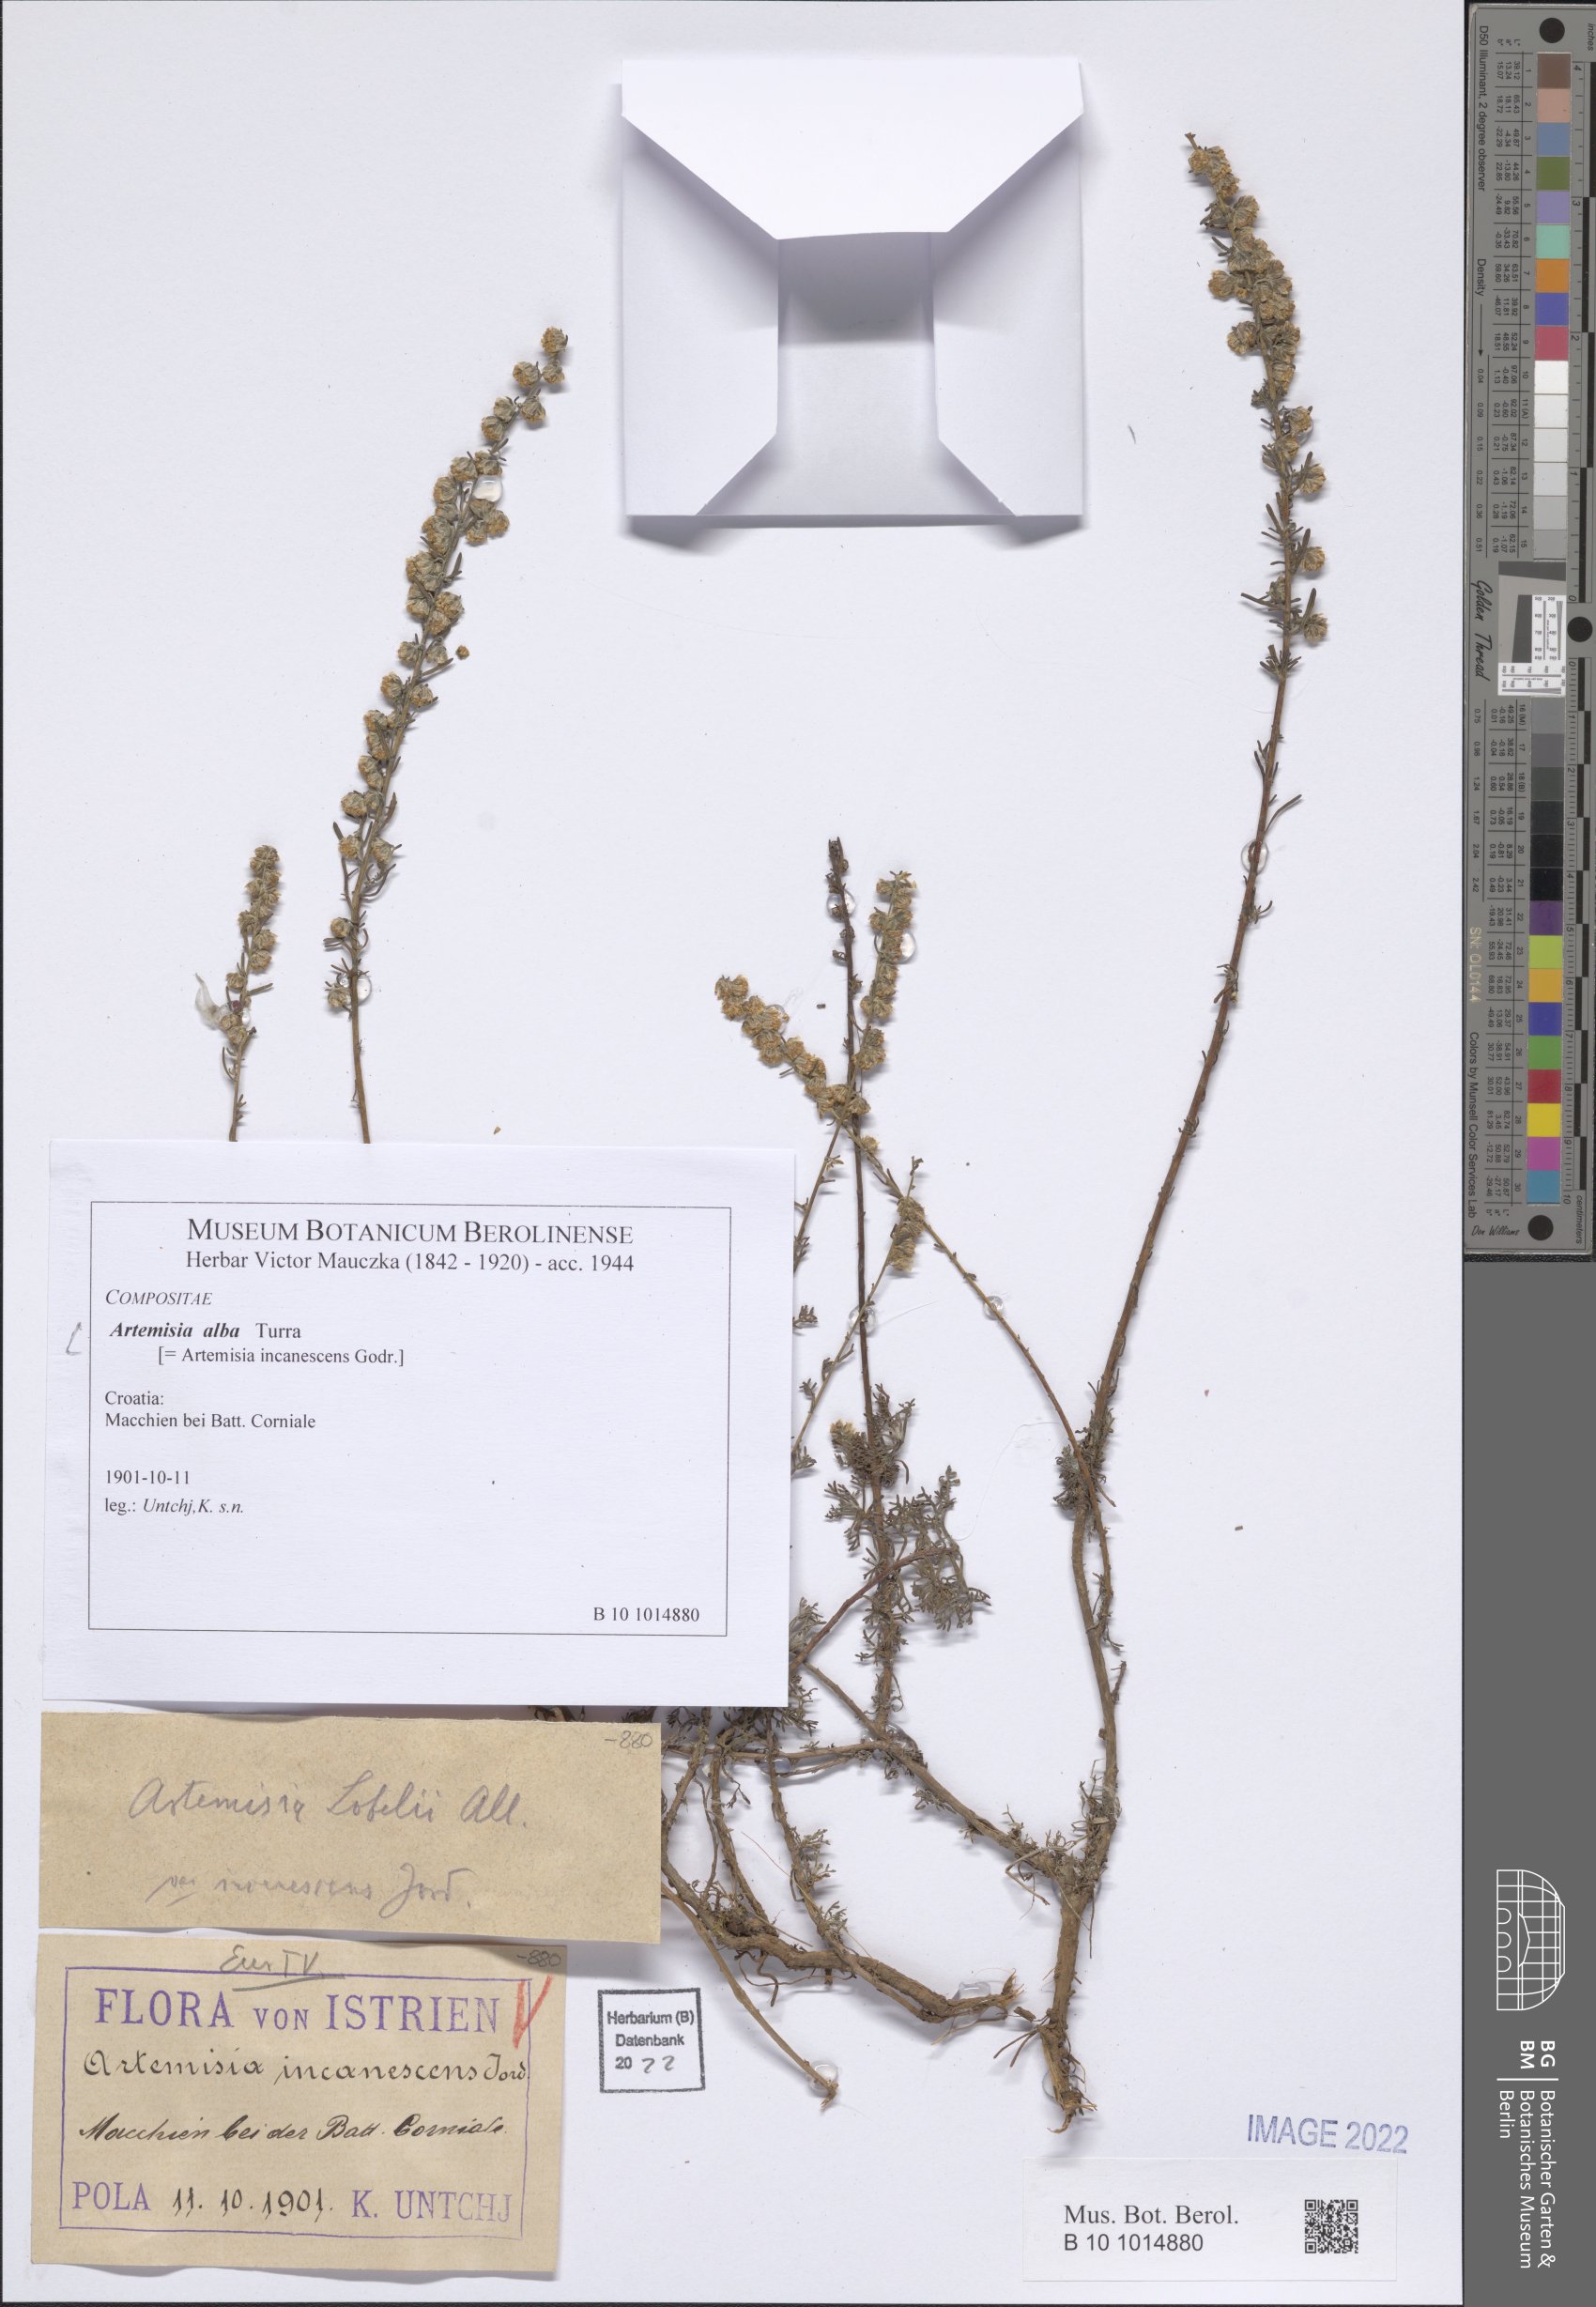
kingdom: Plantae
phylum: Tracheophyta
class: Magnoliopsida
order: Asterales
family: Asteraceae
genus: Artemisia
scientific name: Artemisia alba
